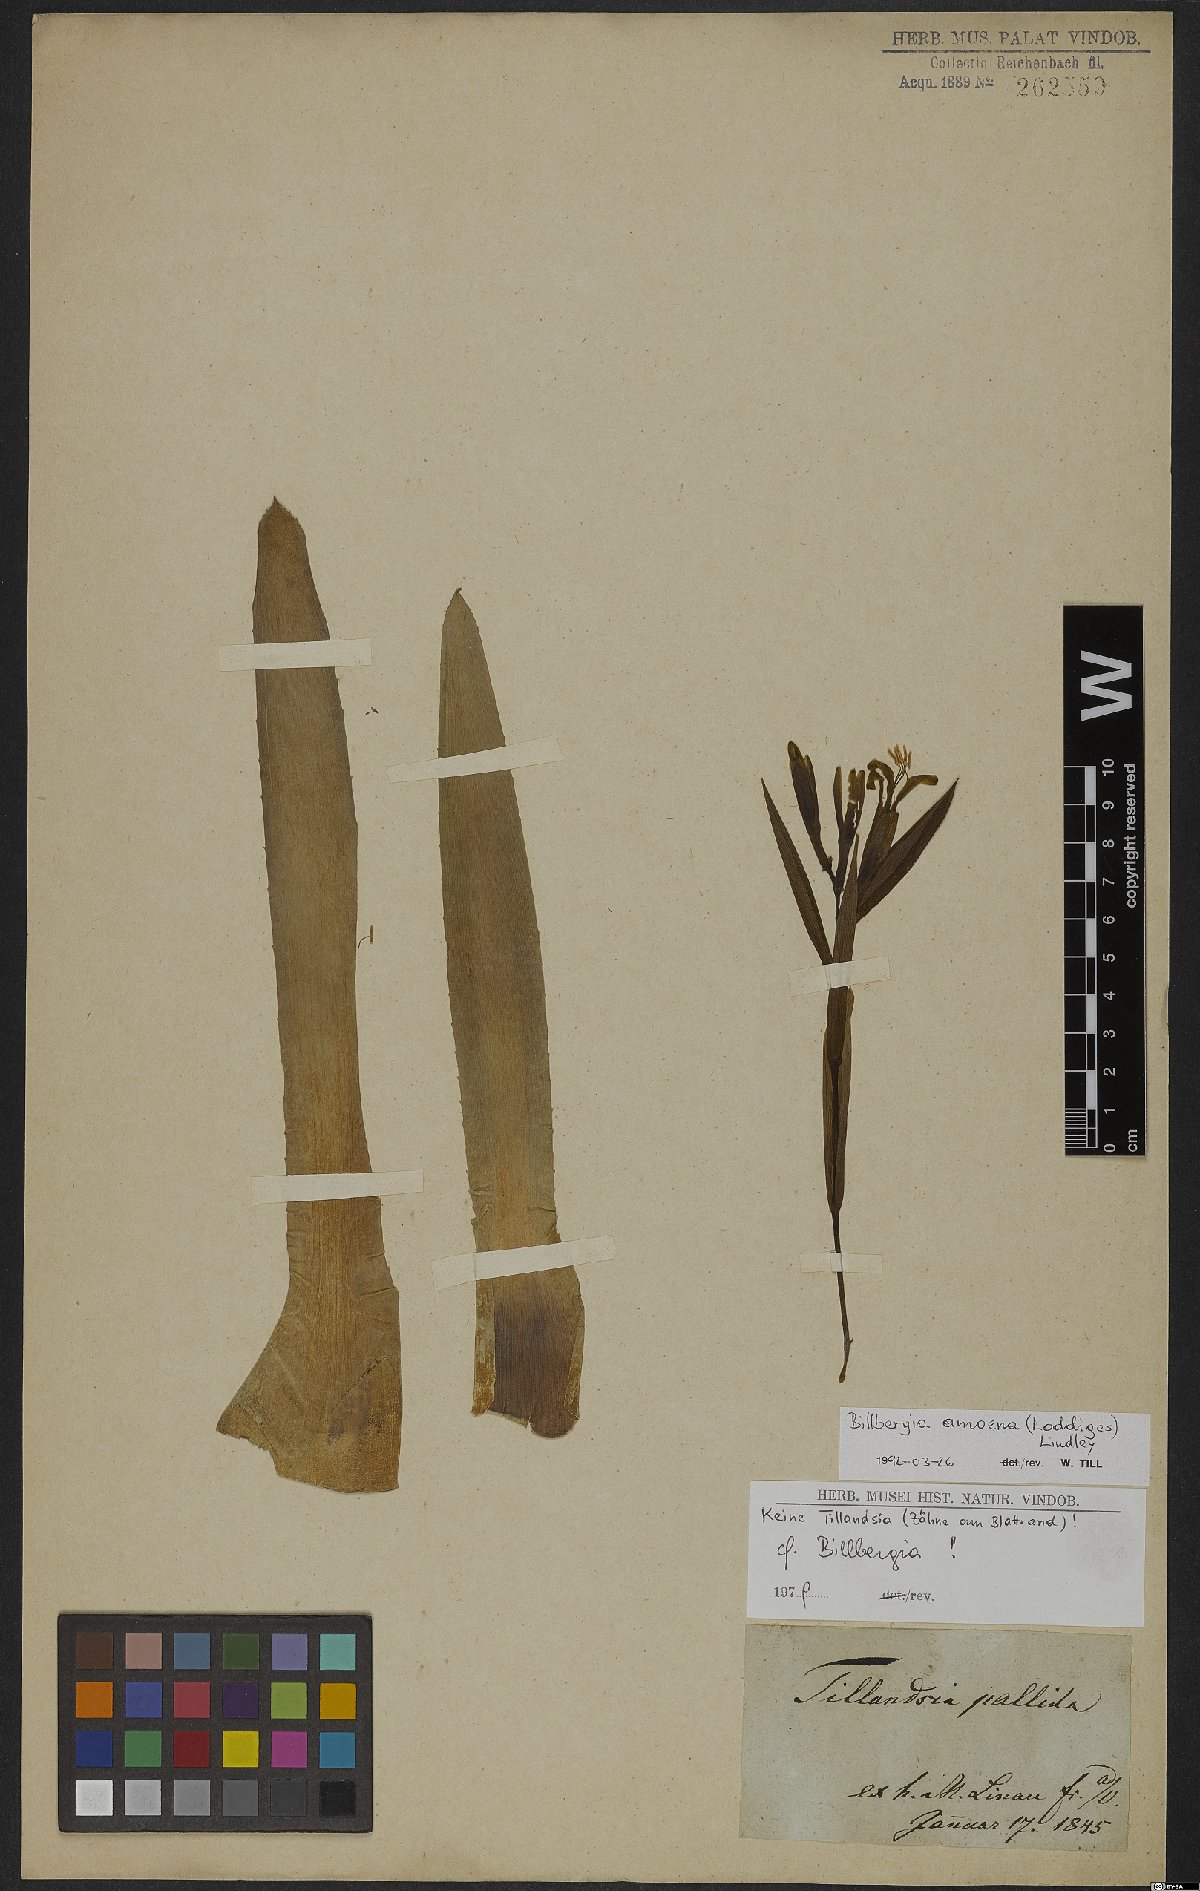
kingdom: Plantae
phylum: Tracheophyta
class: Liliopsida
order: Poales
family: Bromeliaceae
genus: Billbergia
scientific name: Billbergia amoena
